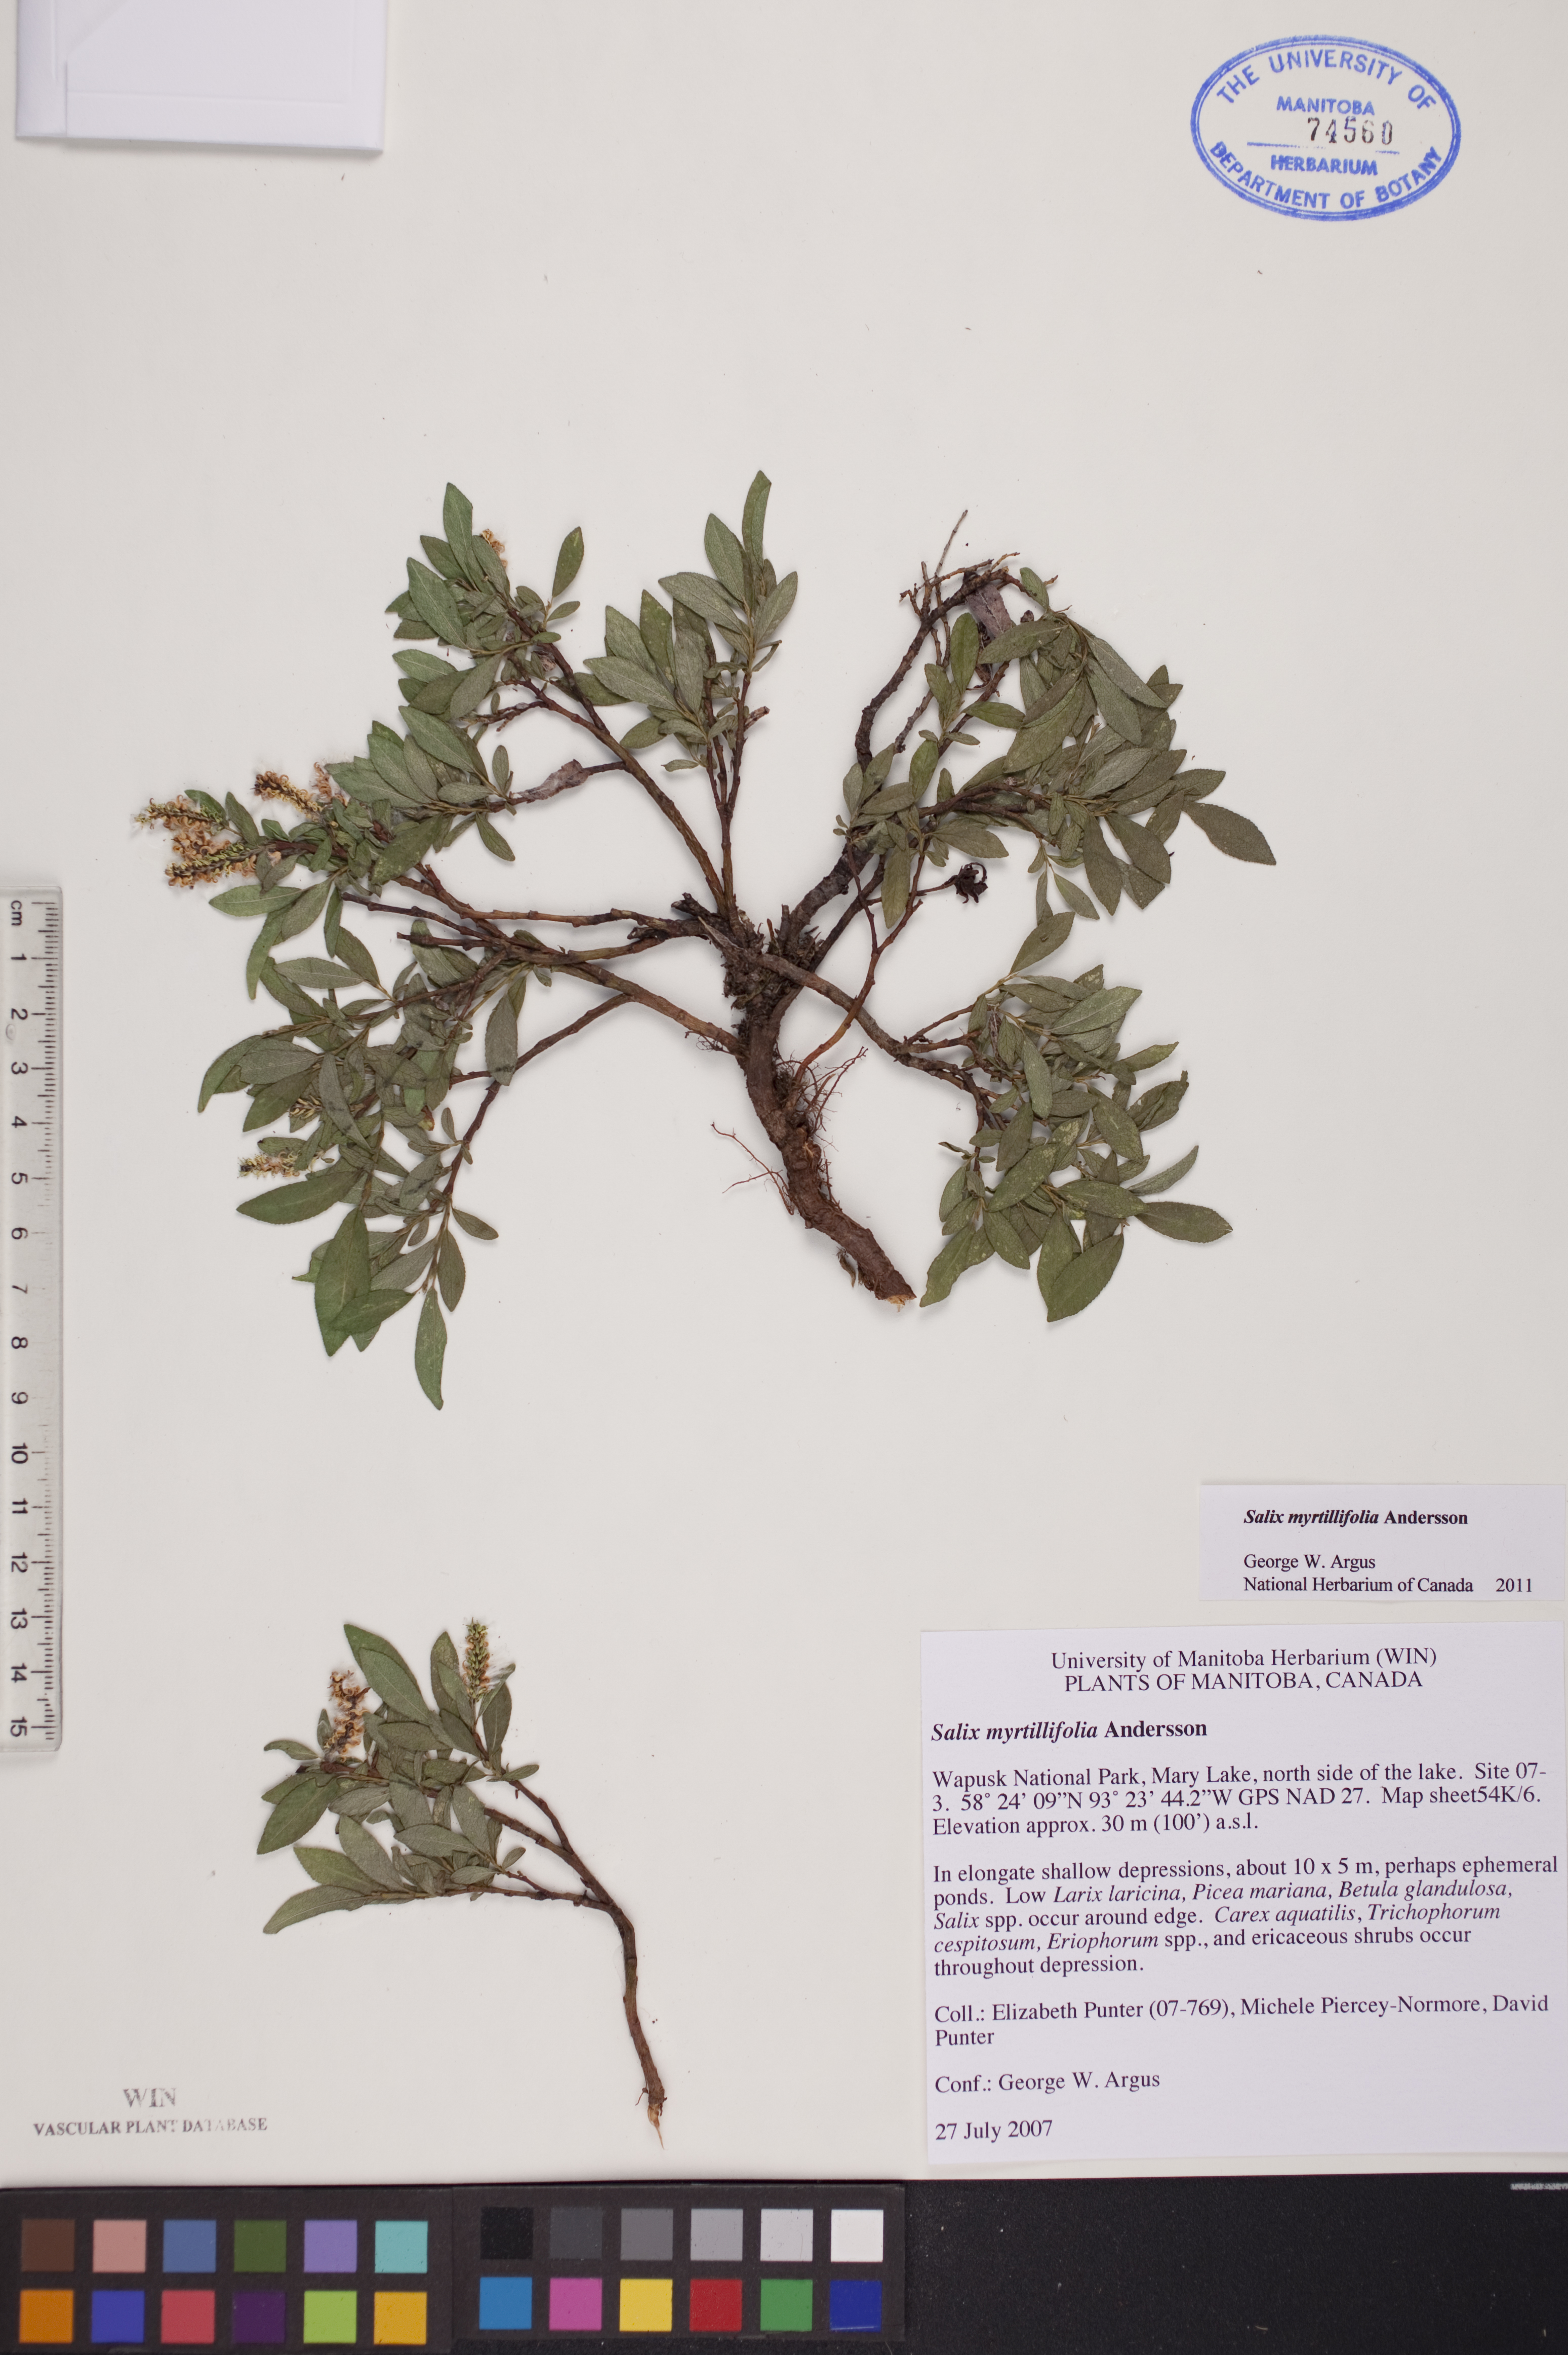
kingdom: Plantae
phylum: Tracheophyta
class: Magnoliopsida
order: Malpighiales
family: Salicaceae
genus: Salix
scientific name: Salix myrtillifolia
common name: Bilberry willow
